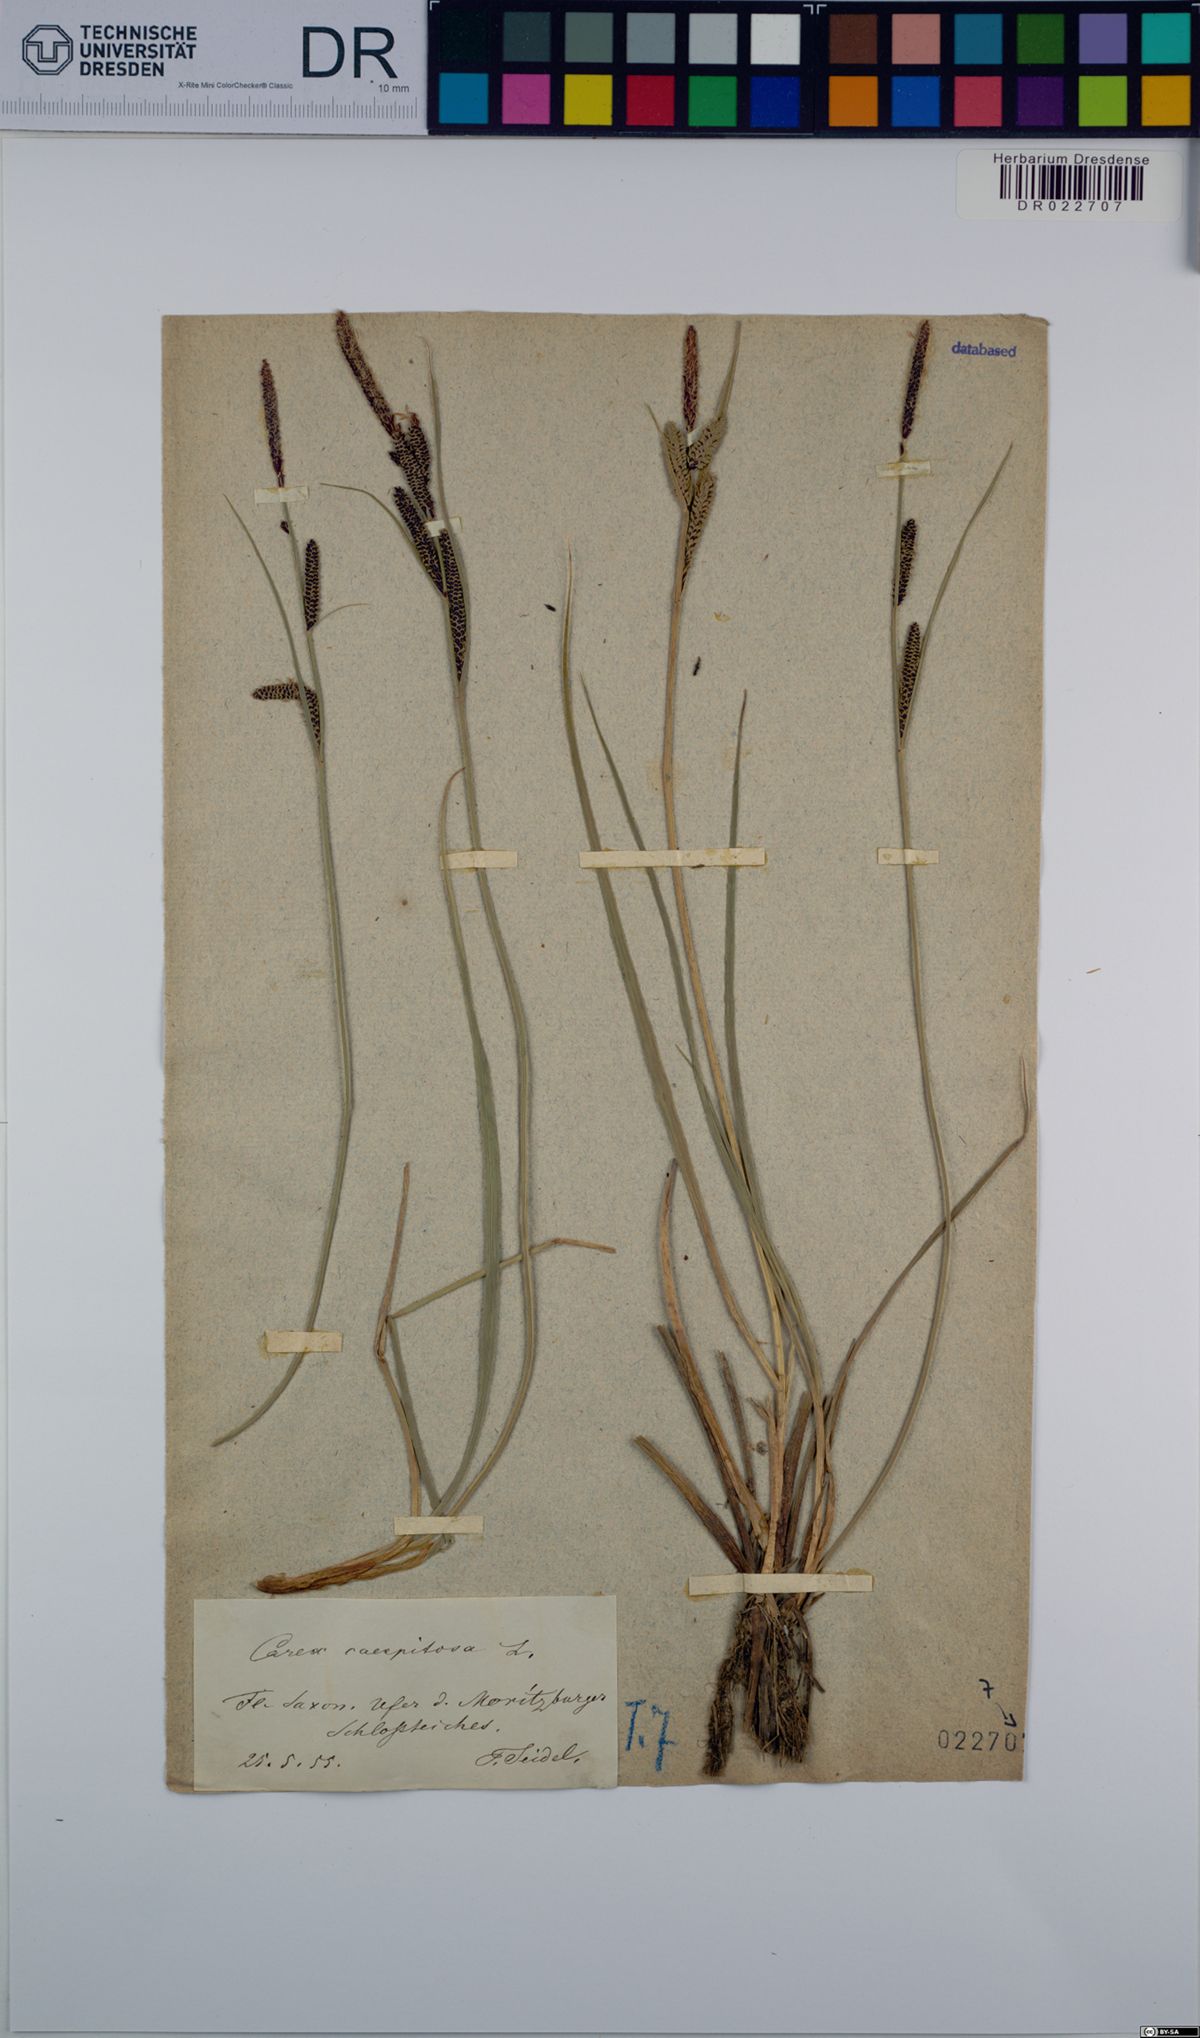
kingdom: Plantae
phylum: Tracheophyta
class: Liliopsida
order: Poales
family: Cyperaceae
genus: Carex
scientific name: Carex cespitosa
